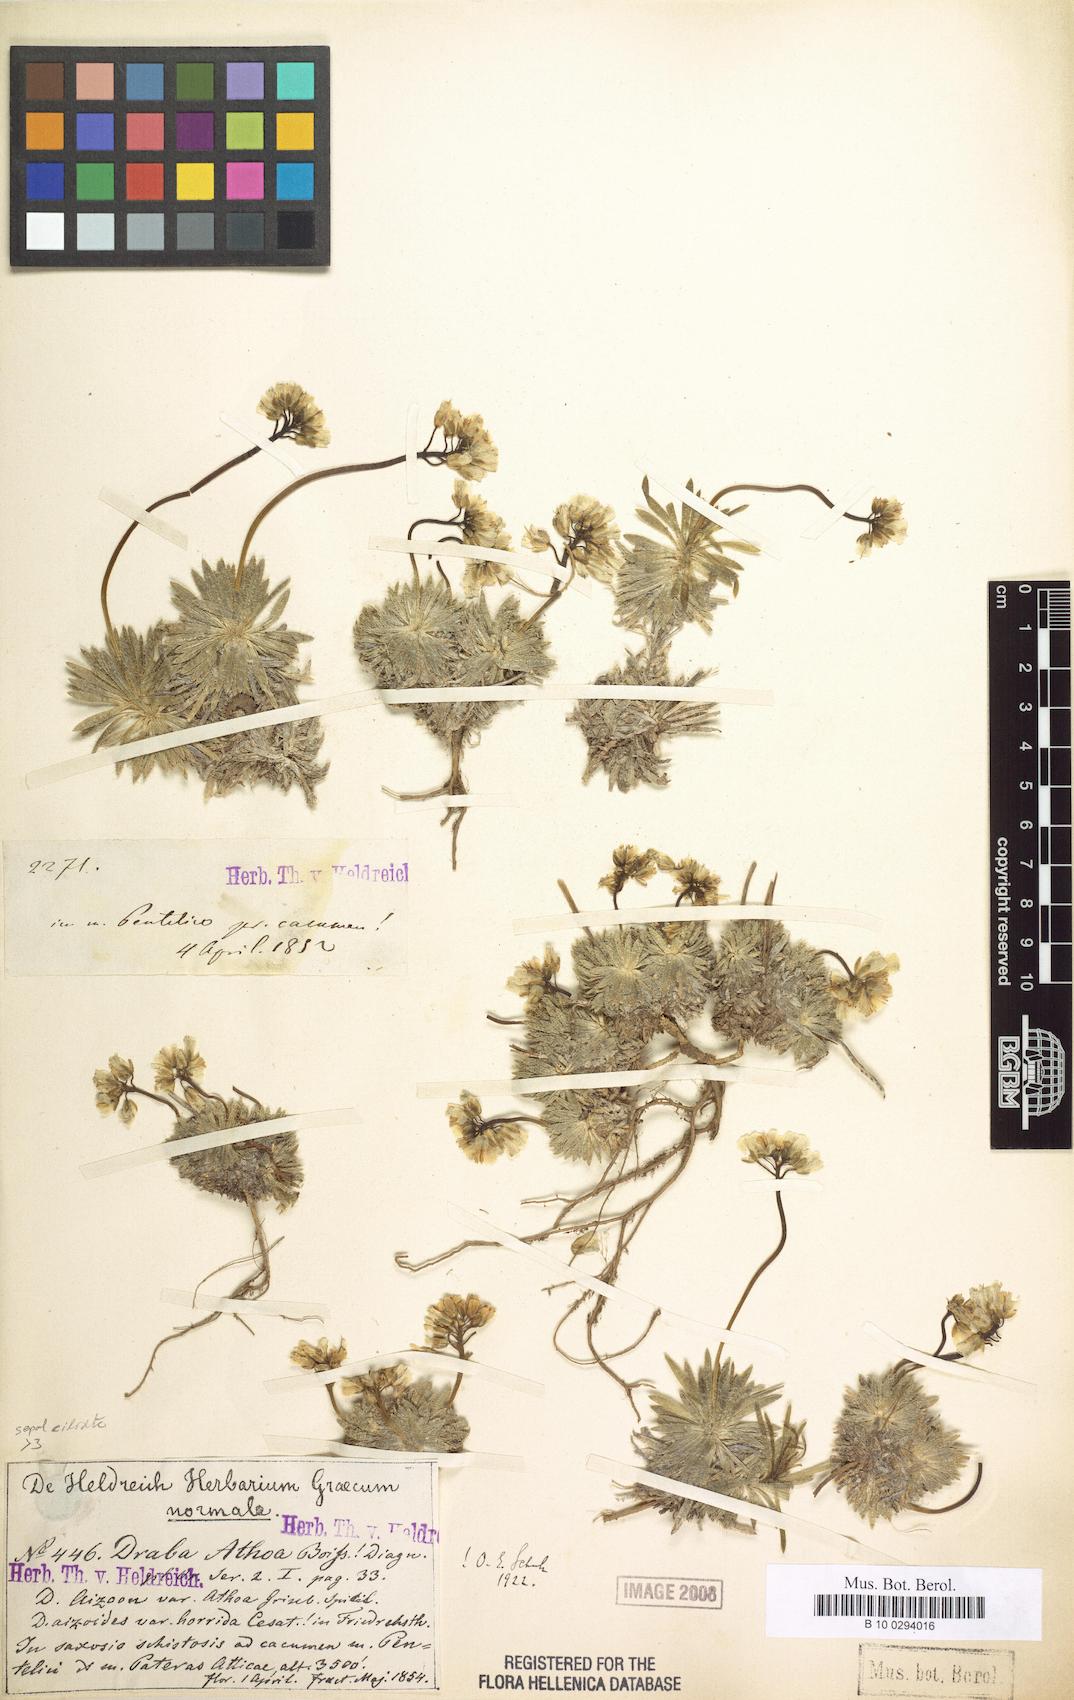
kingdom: Plantae
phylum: Tracheophyta
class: Magnoliopsida
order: Brassicales
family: Brassicaceae
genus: Draba
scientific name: Draba lasiocarpa
